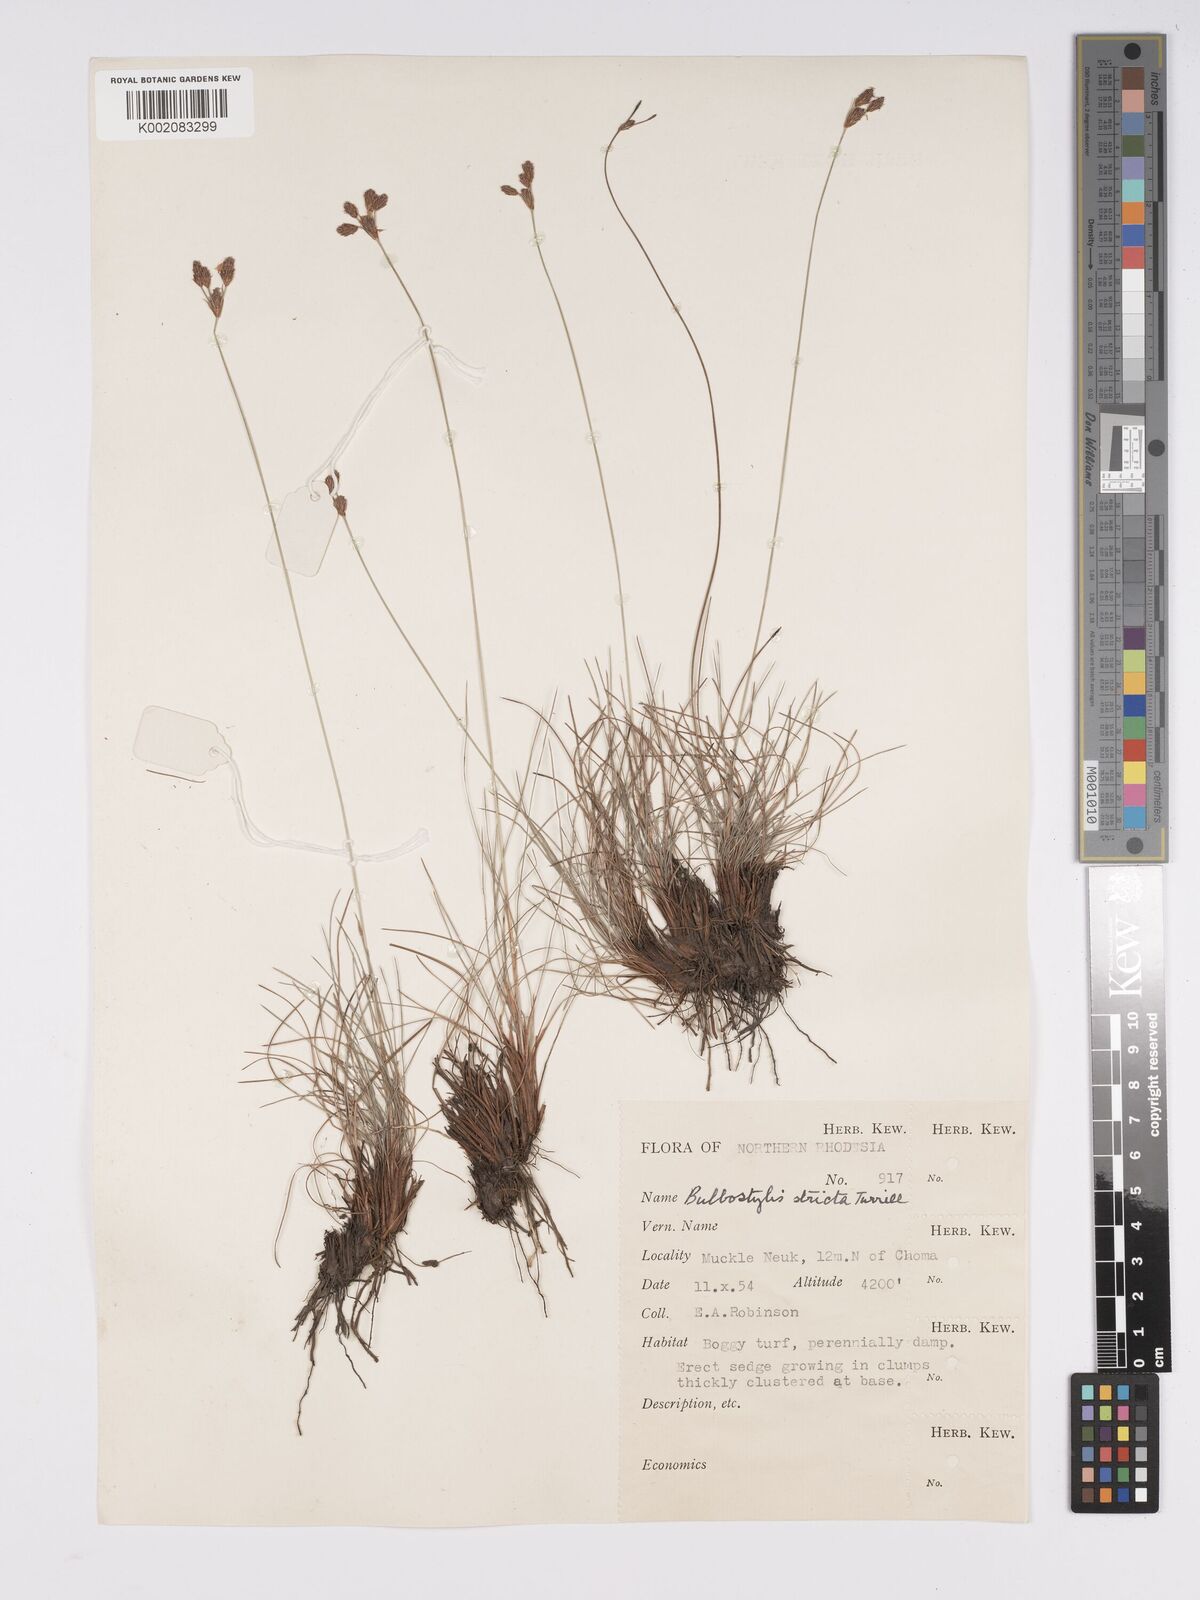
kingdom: Plantae
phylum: Tracheophyta
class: Liliopsida
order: Poales
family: Cyperaceae
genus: Bulbostylis
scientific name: Bulbostylis schoenoides
